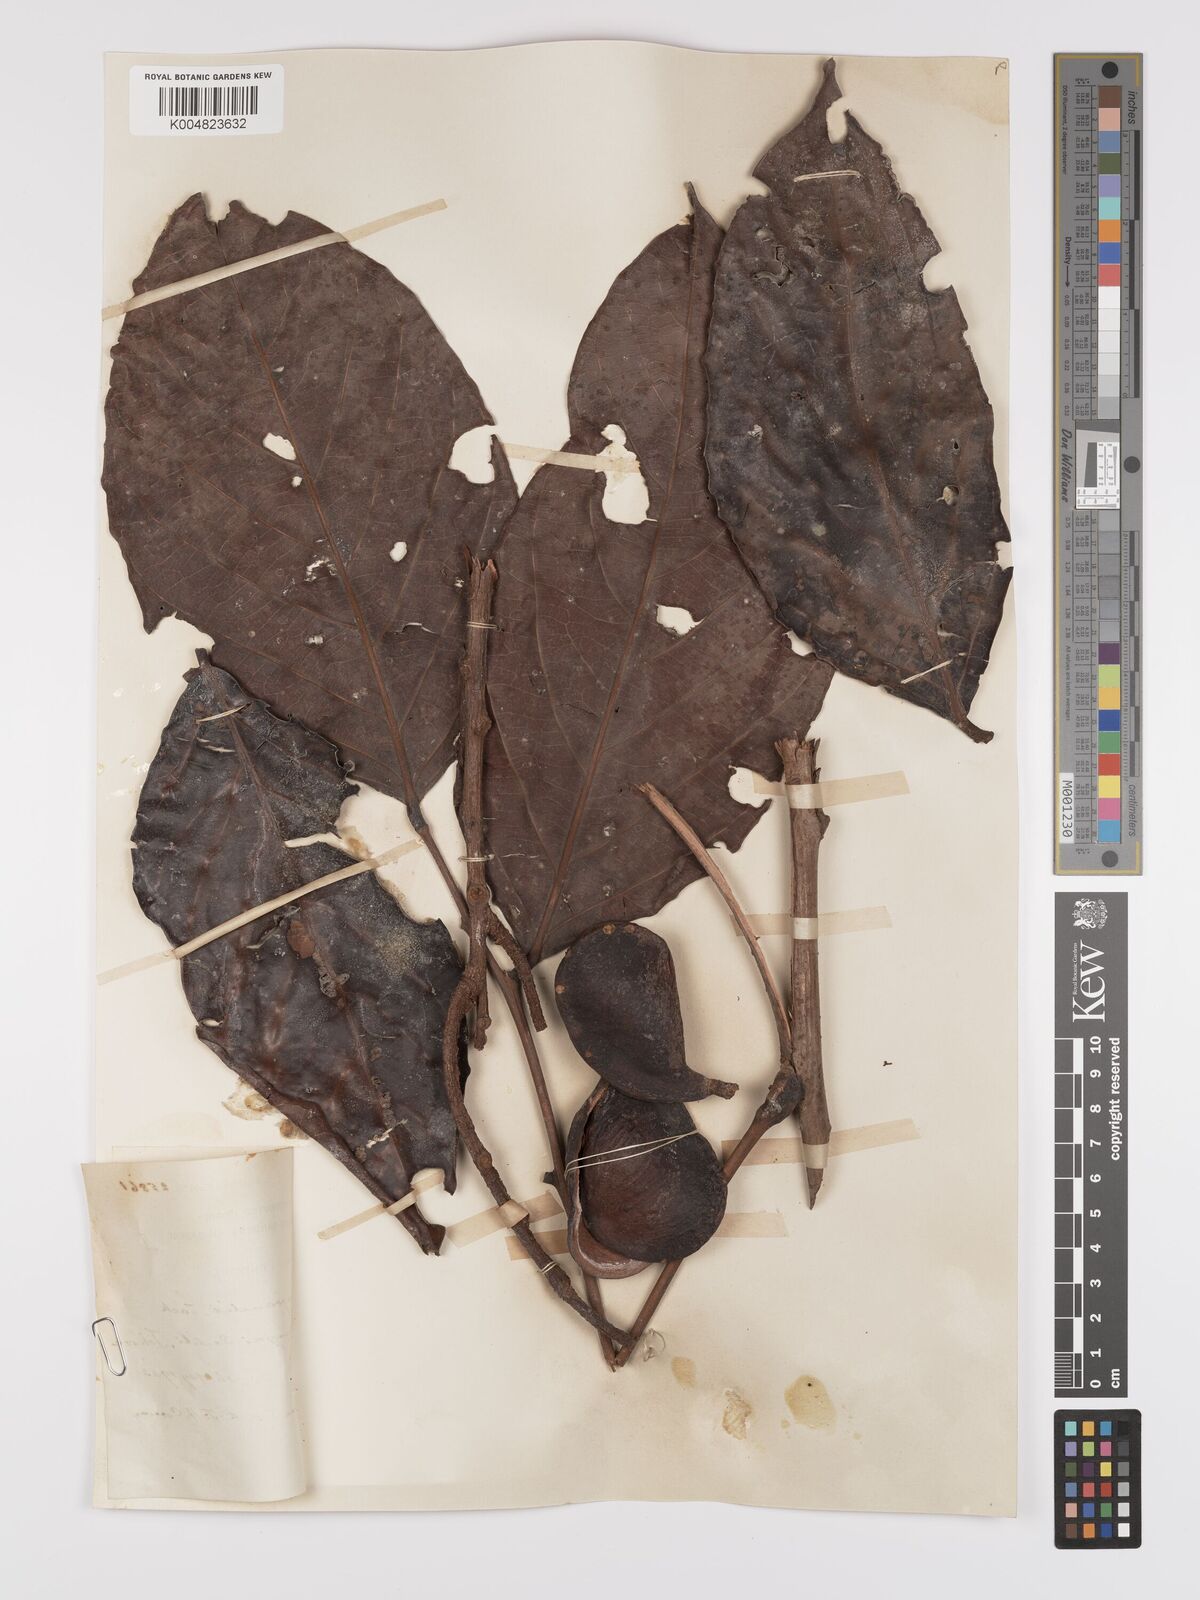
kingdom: Plantae
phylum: Tracheophyta
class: Magnoliopsida
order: Oxalidales
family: Connaraceae
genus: Connarus
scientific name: Connarus grandis
